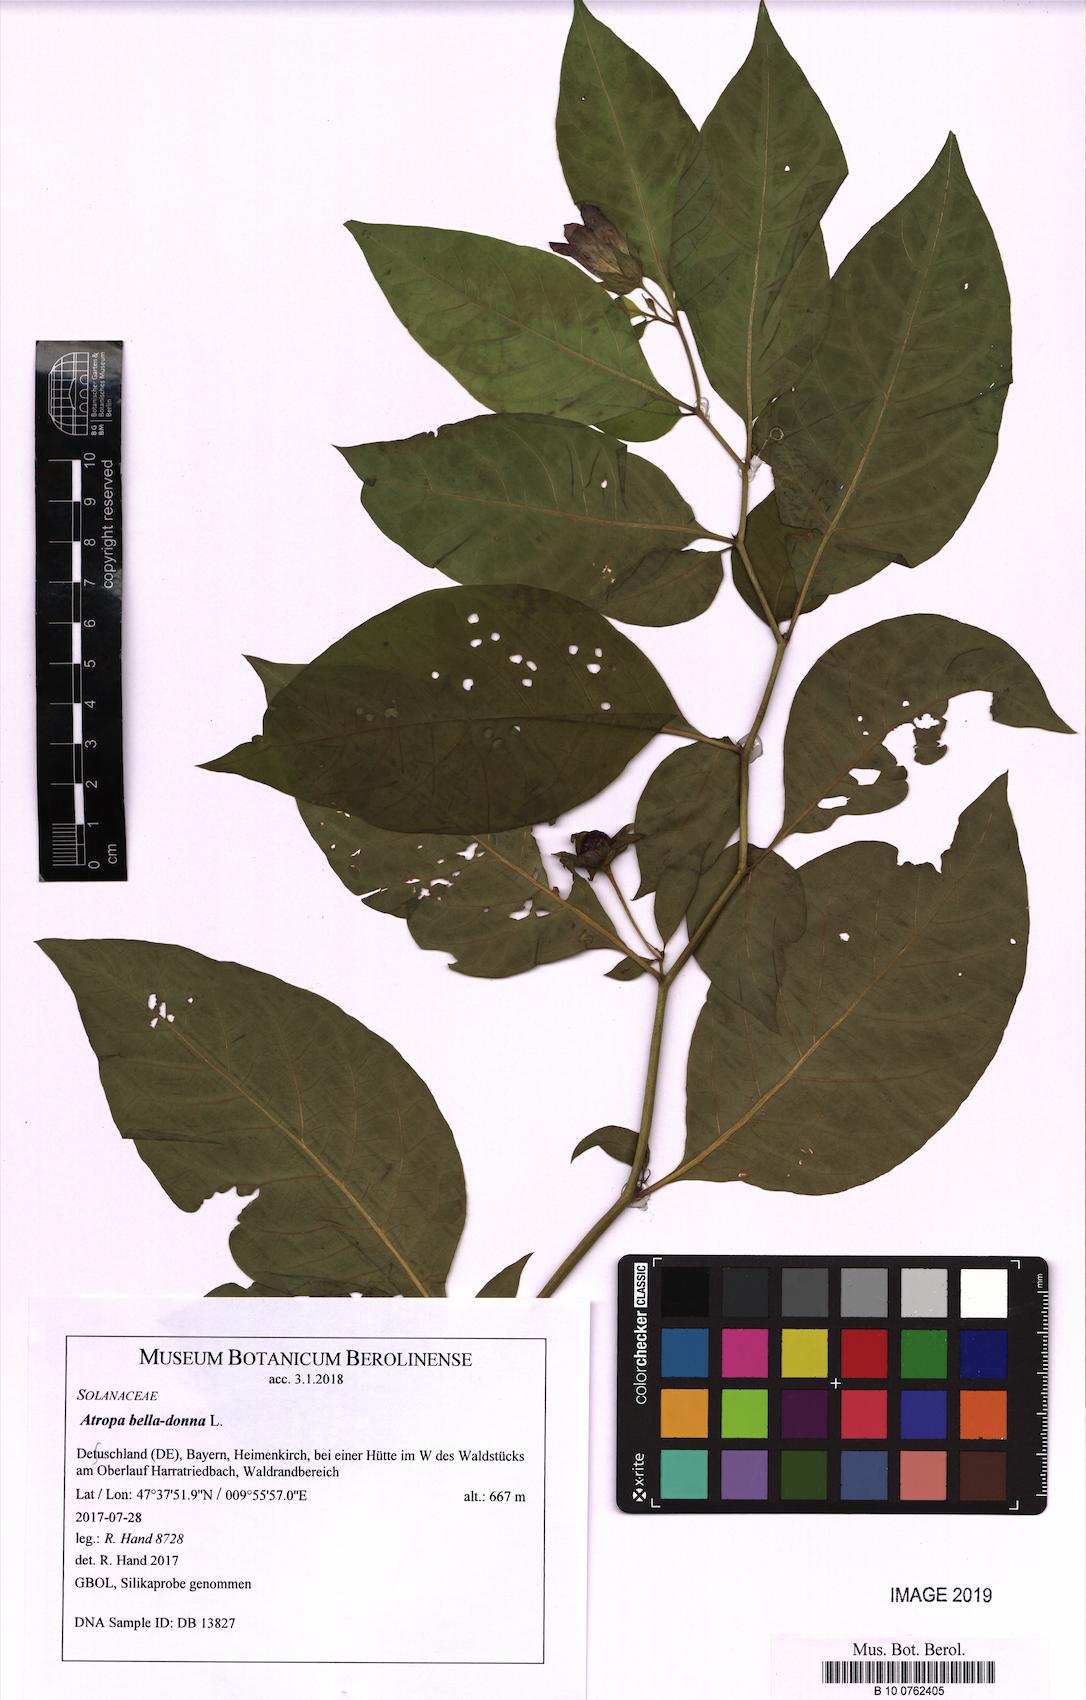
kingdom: Plantae
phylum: Tracheophyta
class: Magnoliopsida
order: Solanales
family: Solanaceae
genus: Atropa
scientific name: Atropa belladonna
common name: Deadly nightshade
